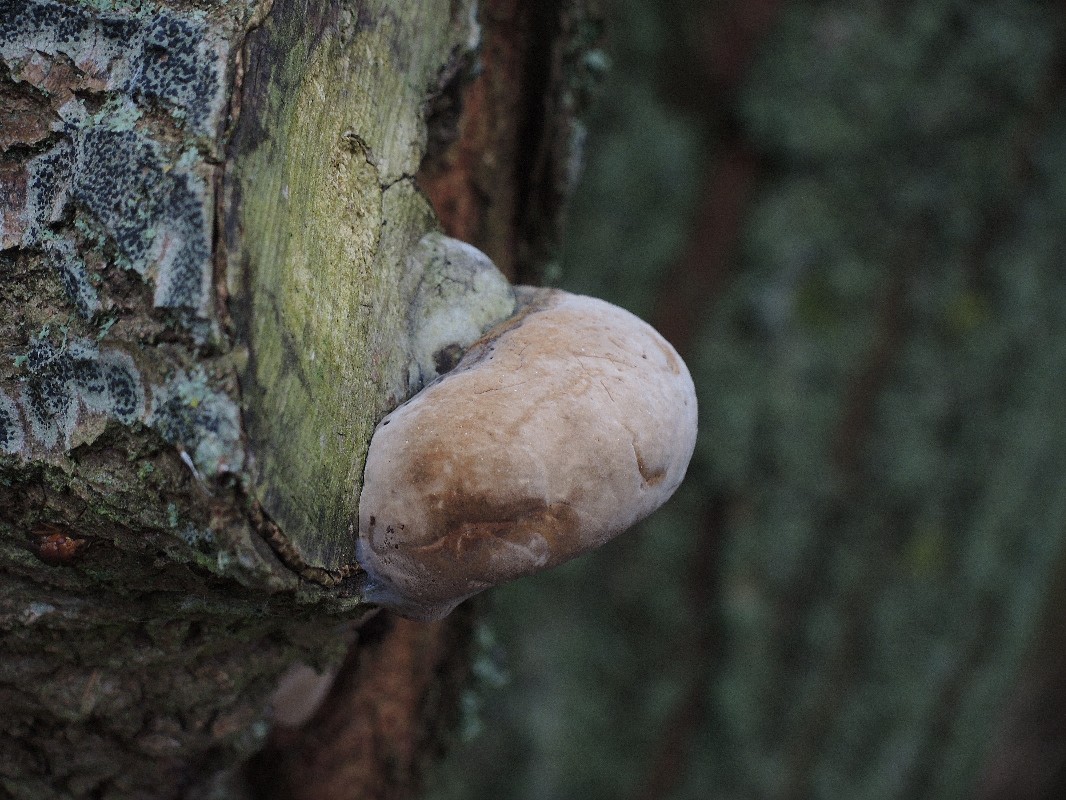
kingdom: Fungi
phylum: Basidiomycota
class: Agaricomycetes
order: Hymenochaetales
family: Hymenochaetaceae
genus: Phellinus
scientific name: Phellinus igniarius
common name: almindelig ildporesvamp
